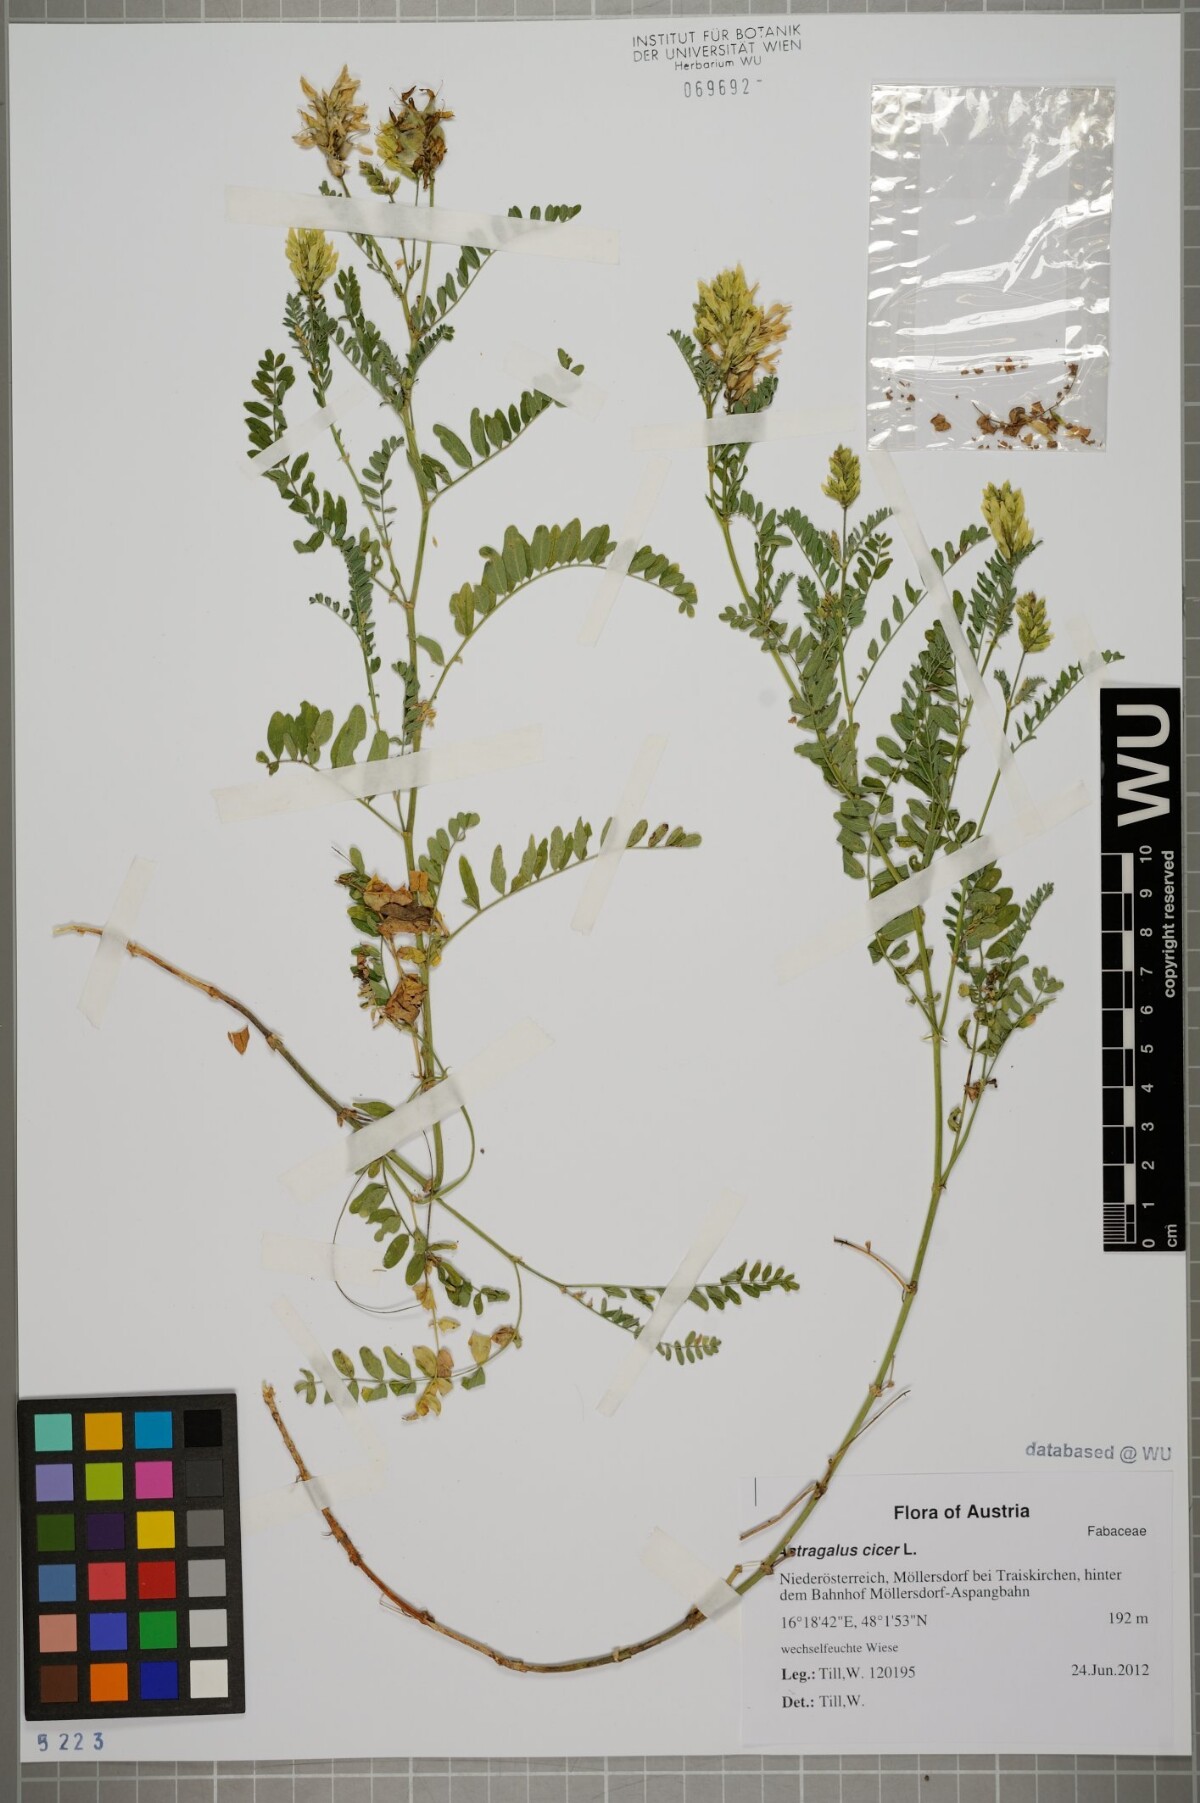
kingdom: Plantae
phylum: Tracheophyta
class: Magnoliopsida
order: Fabales
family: Fabaceae
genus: Astragalus
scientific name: Astragalus cicer
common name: Chick-pea milk-vetch
